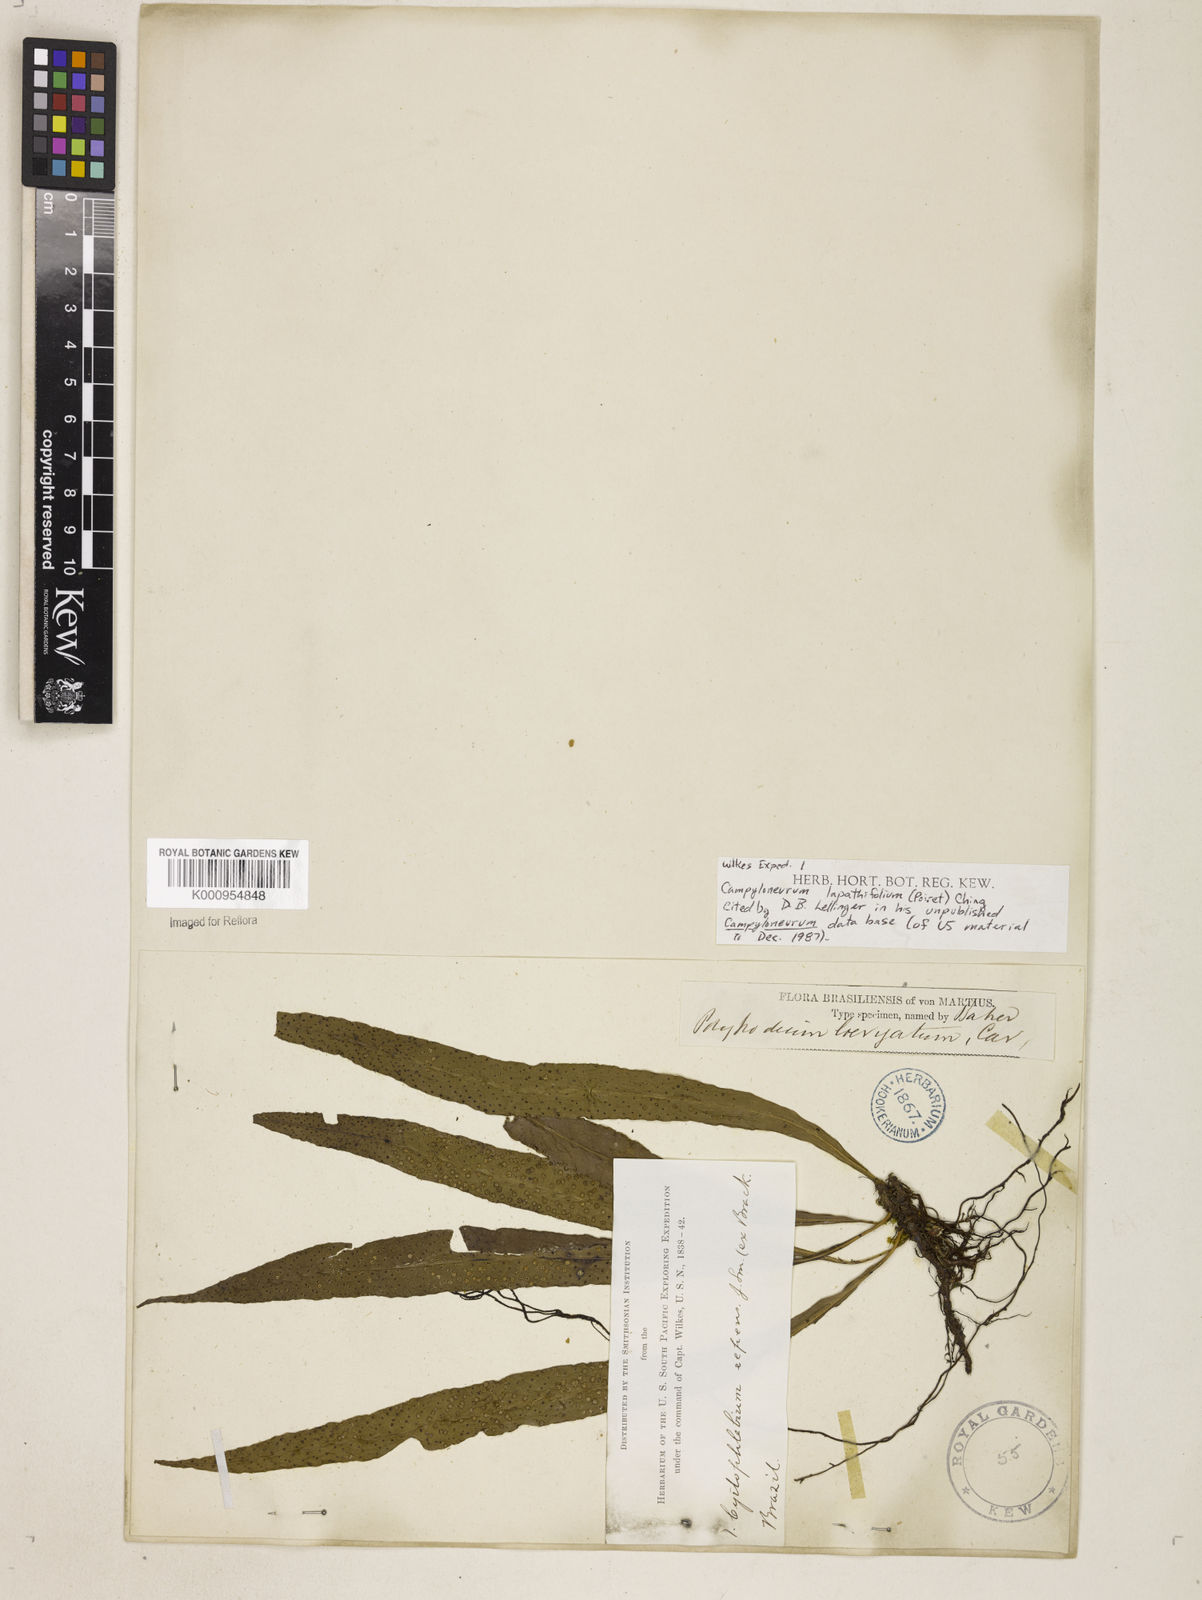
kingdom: Plantae
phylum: Tracheophyta
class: Polypodiopsida
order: Polypodiales
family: Polypodiaceae
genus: Campyloneurum
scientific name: Campyloneurum repens
